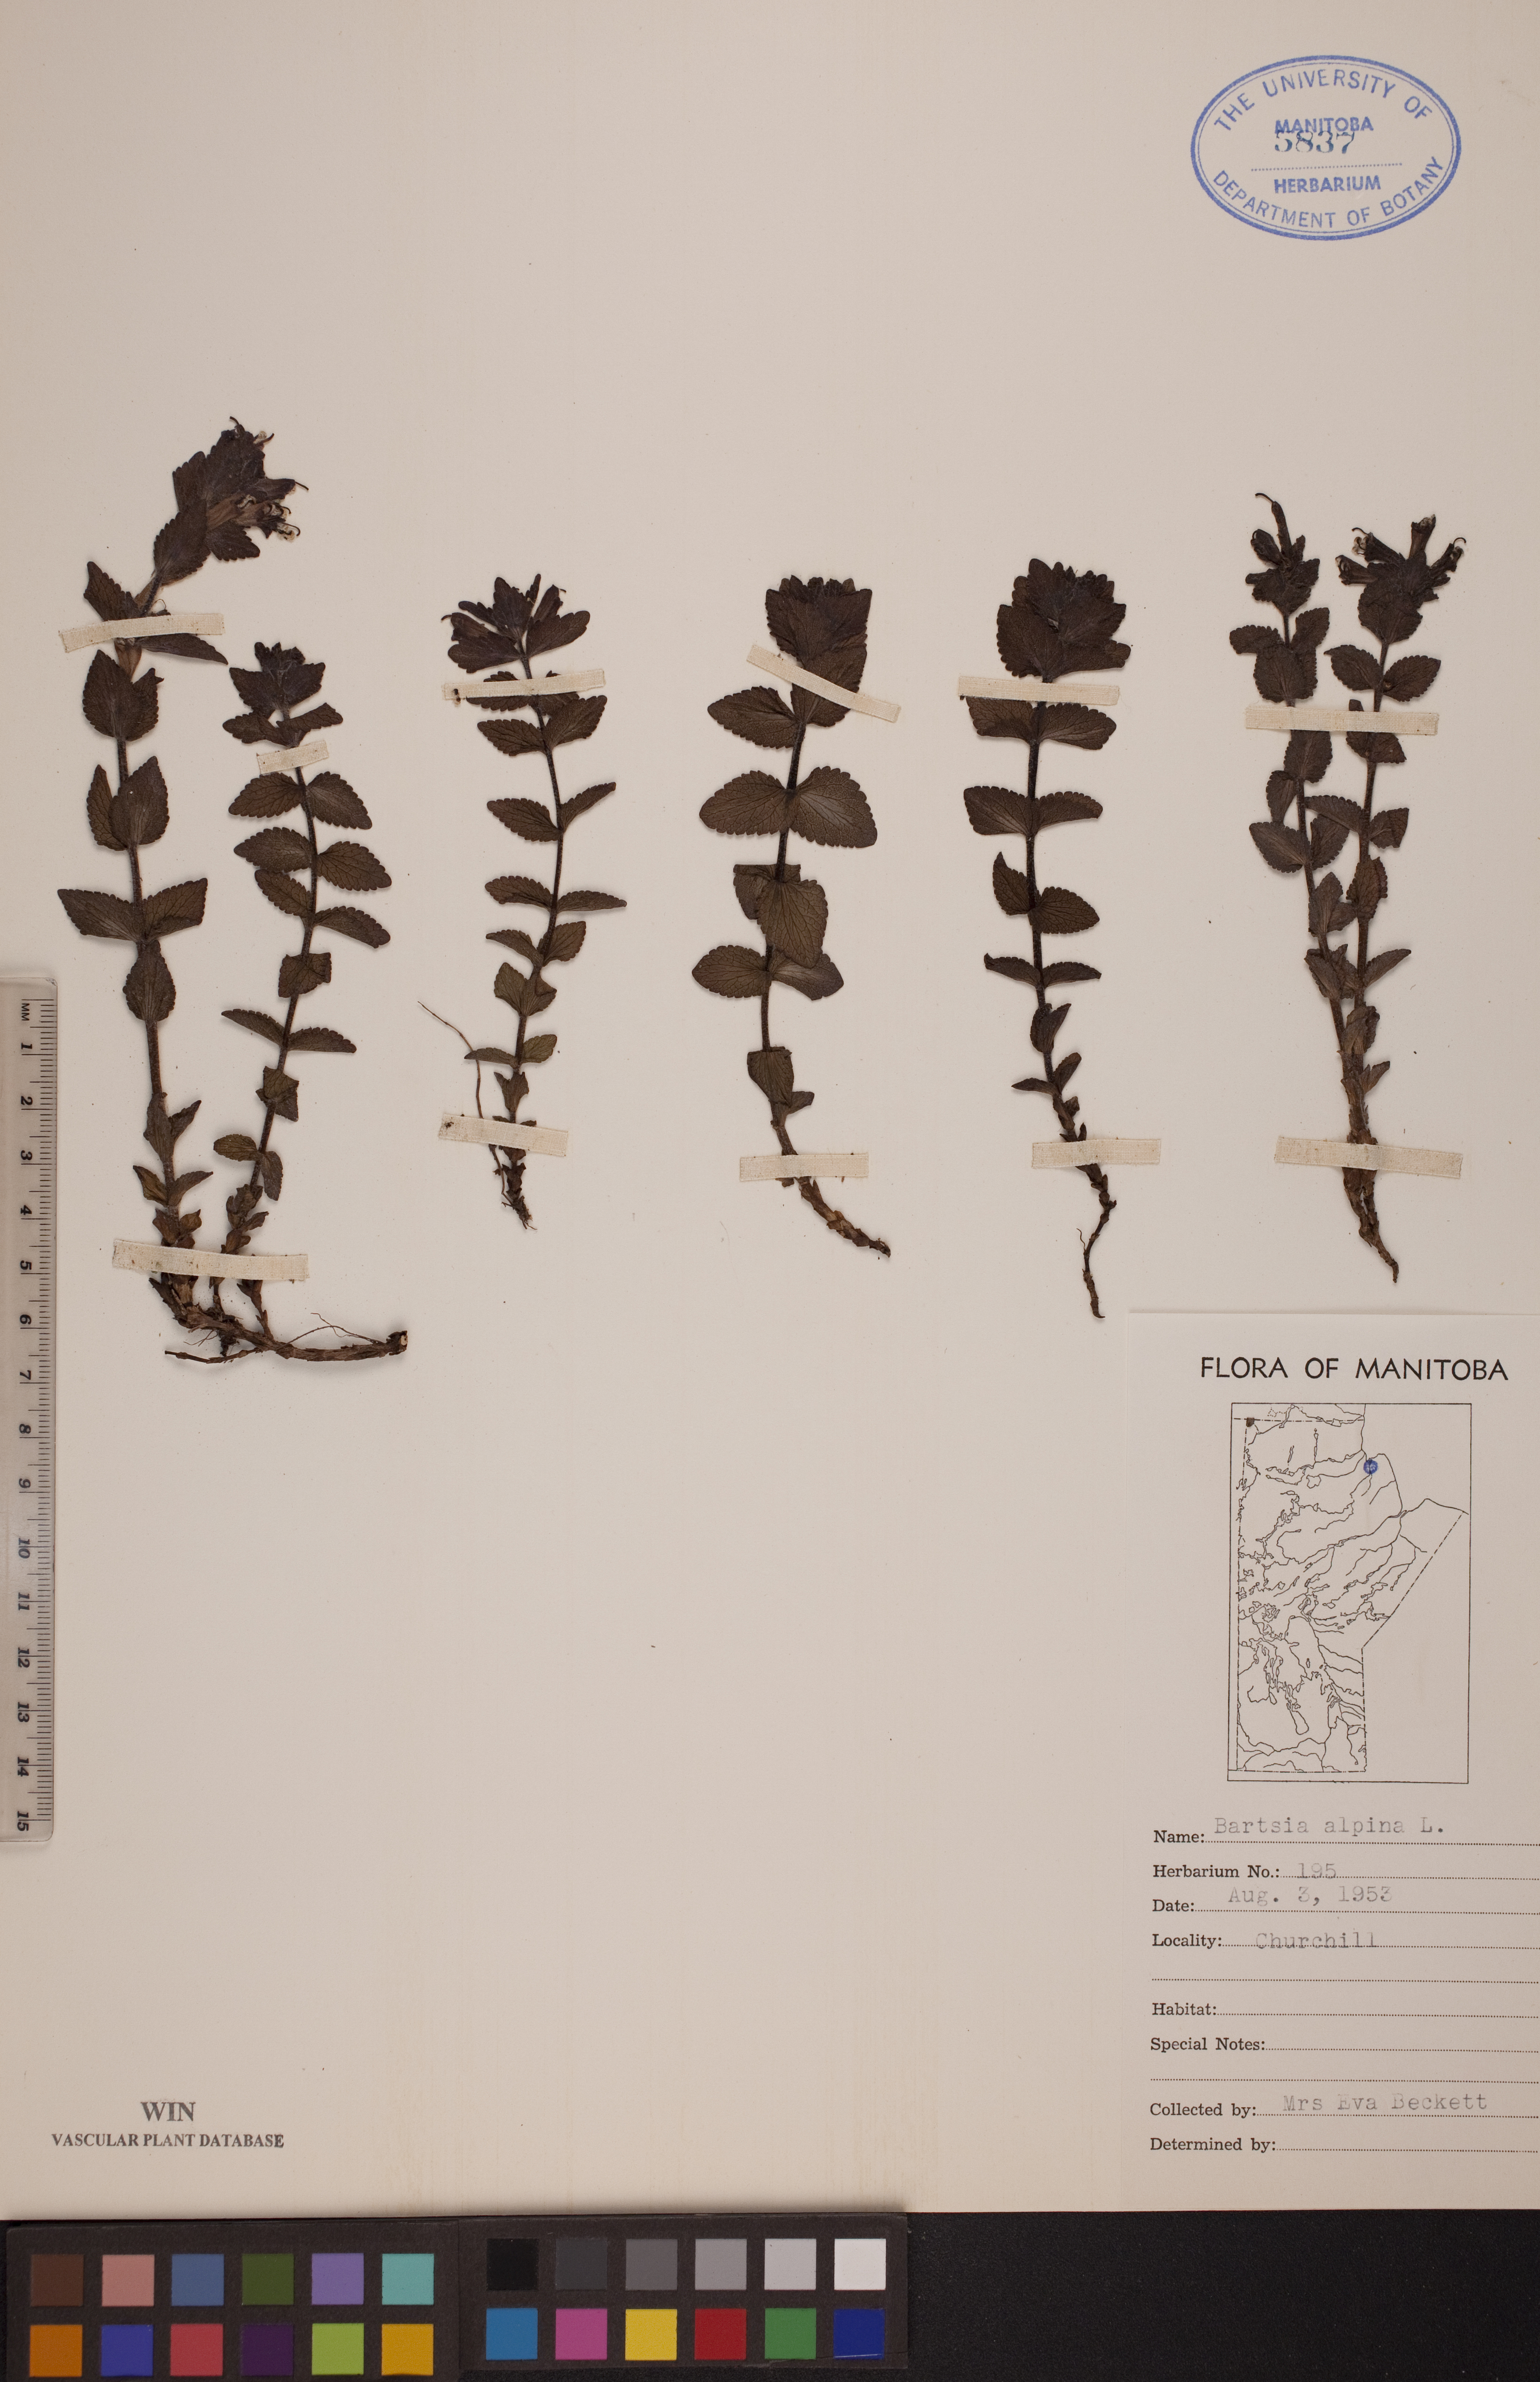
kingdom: Plantae
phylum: Tracheophyta
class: Magnoliopsida
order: Lamiales
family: Orobanchaceae
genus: Bartsia
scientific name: Bartsia alpina
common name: Alpine bartsia
